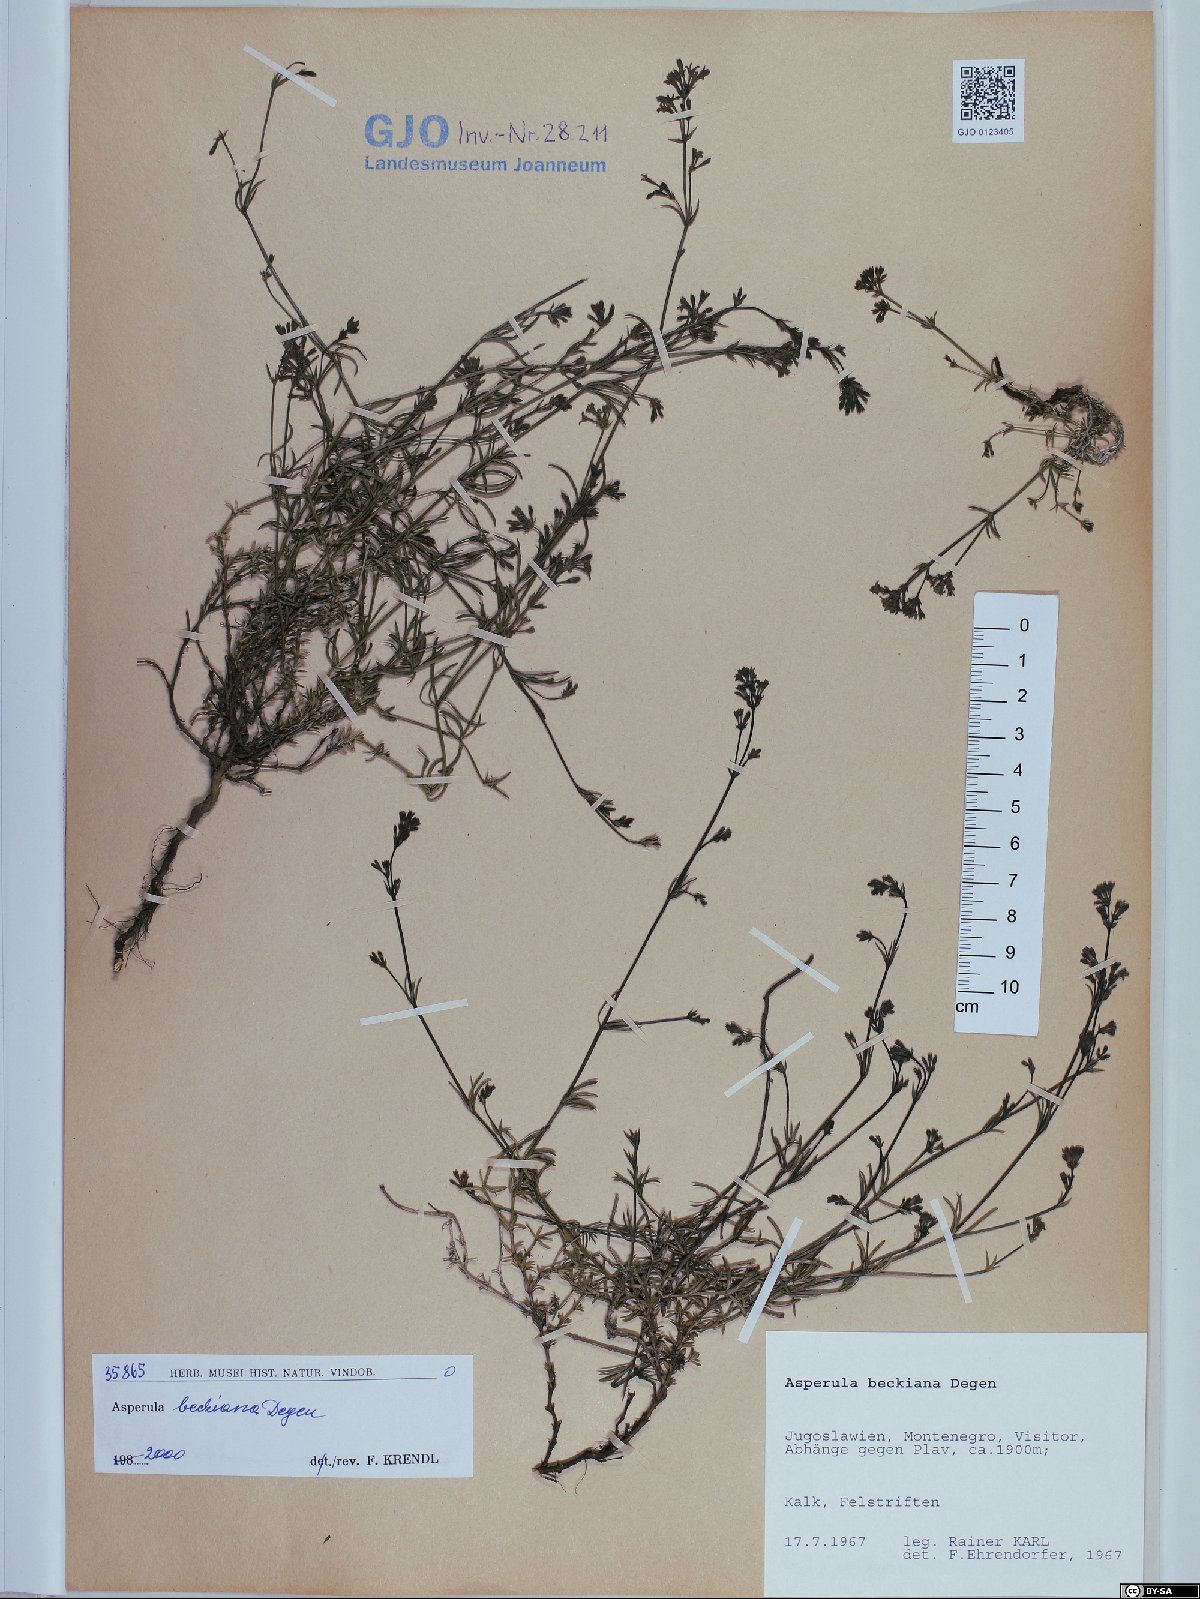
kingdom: Plantae
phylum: Tracheophyta
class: Magnoliopsida
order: Gentianales
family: Rubiaceae
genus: Cynanchica
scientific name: Cynanchica beckiana
